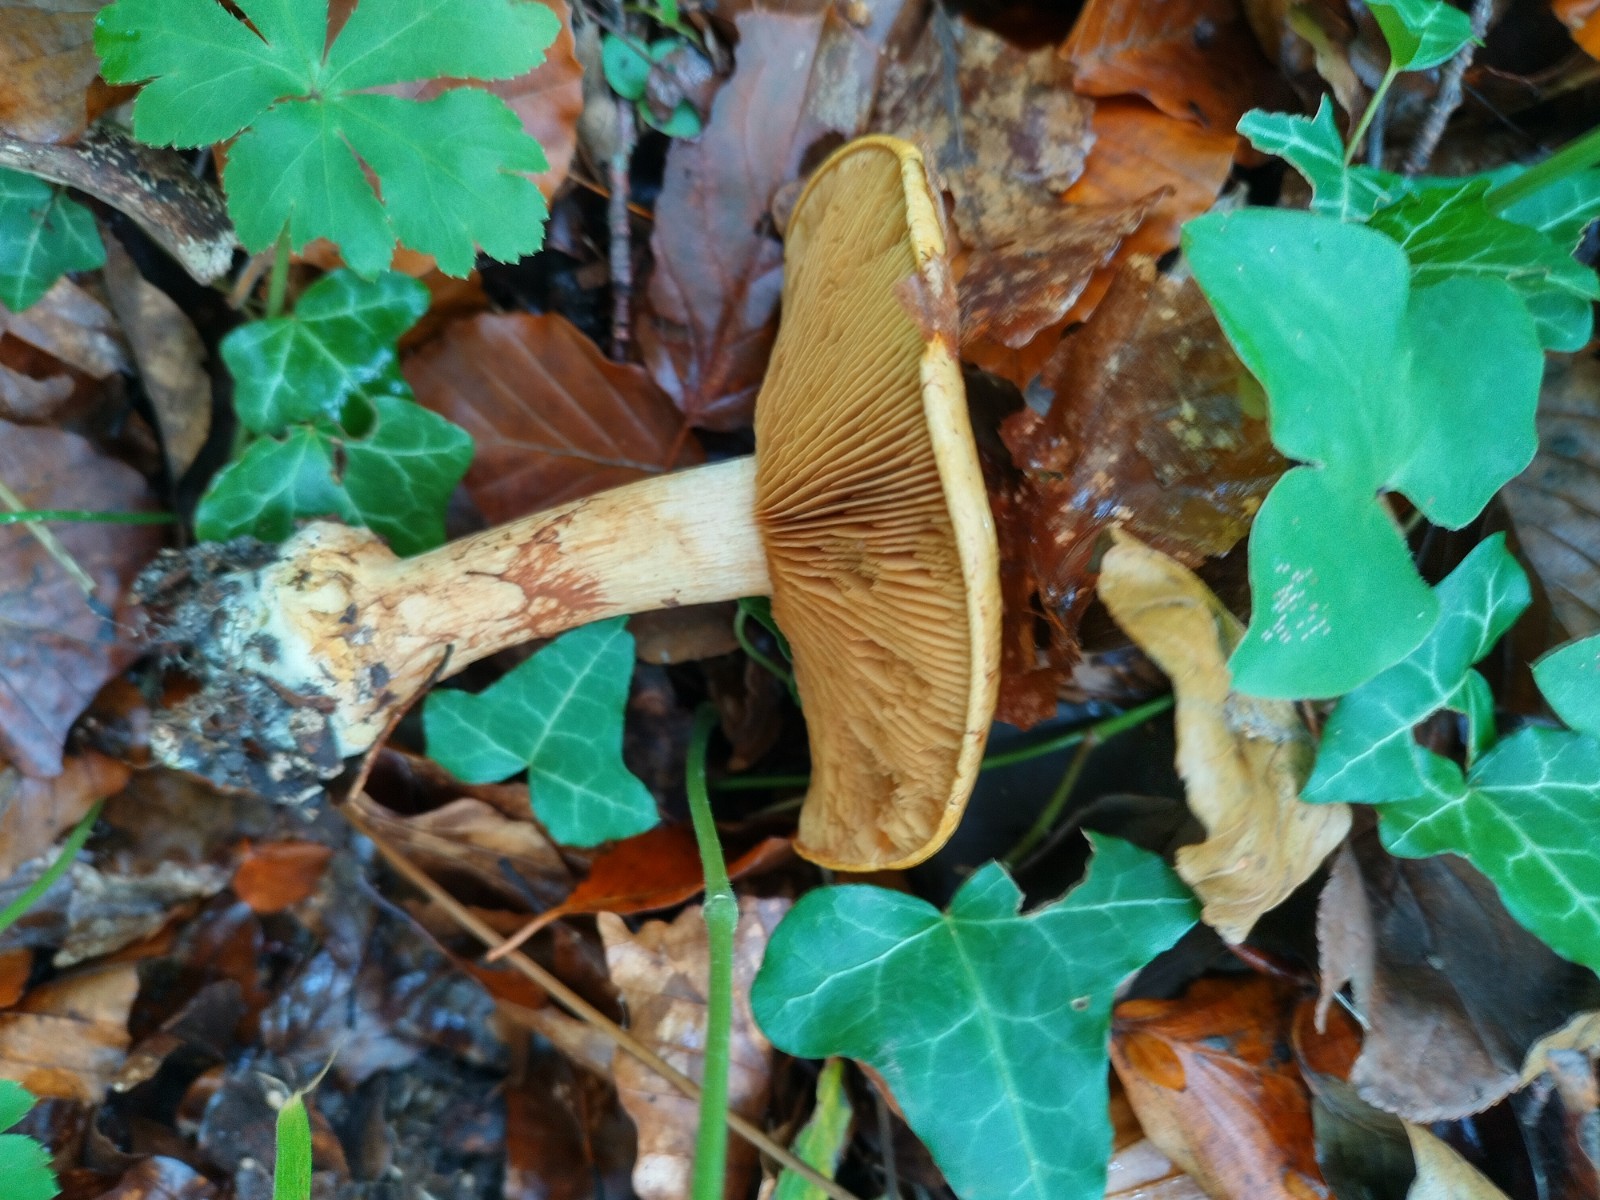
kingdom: Fungi
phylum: Basidiomycota
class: Agaricomycetes
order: Agaricales
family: Cortinariaceae
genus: Calonarius
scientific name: Calonarius elegantissimus
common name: orangegylden slørhat
